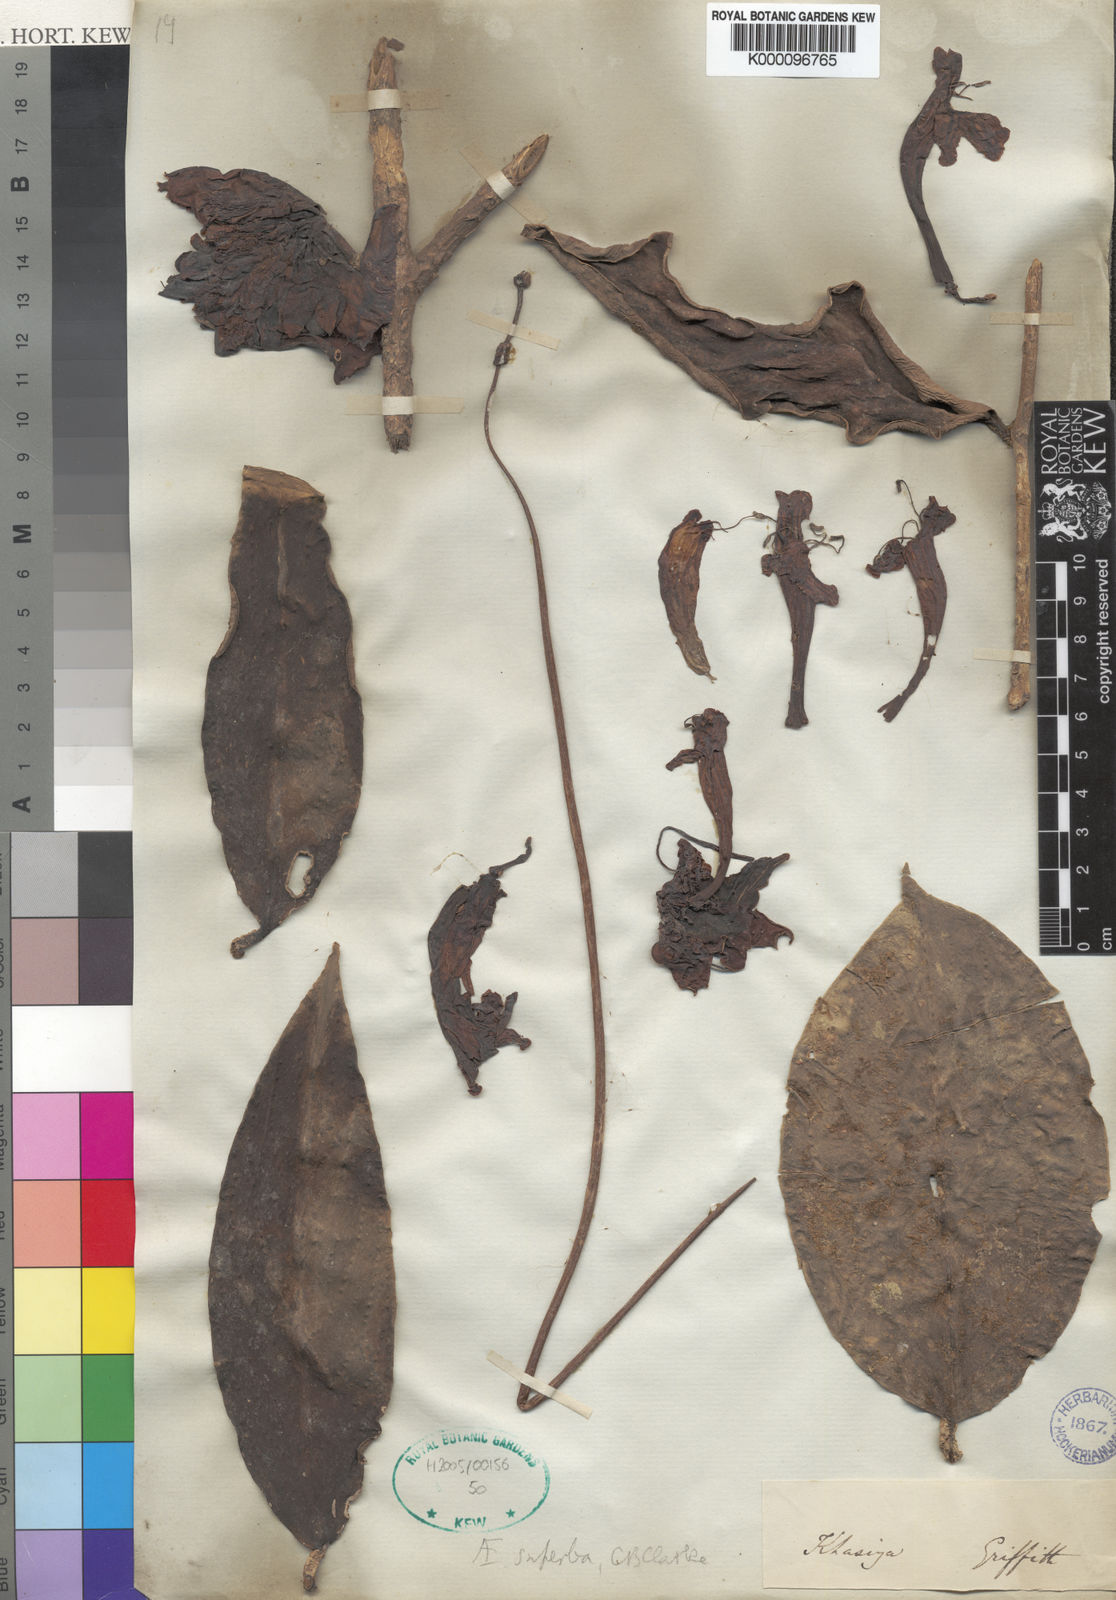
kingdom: Plantae
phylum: Tracheophyta
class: Magnoliopsida
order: Lamiales
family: Gesneriaceae
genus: Aeschynanthus
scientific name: Aeschynanthus superbus
